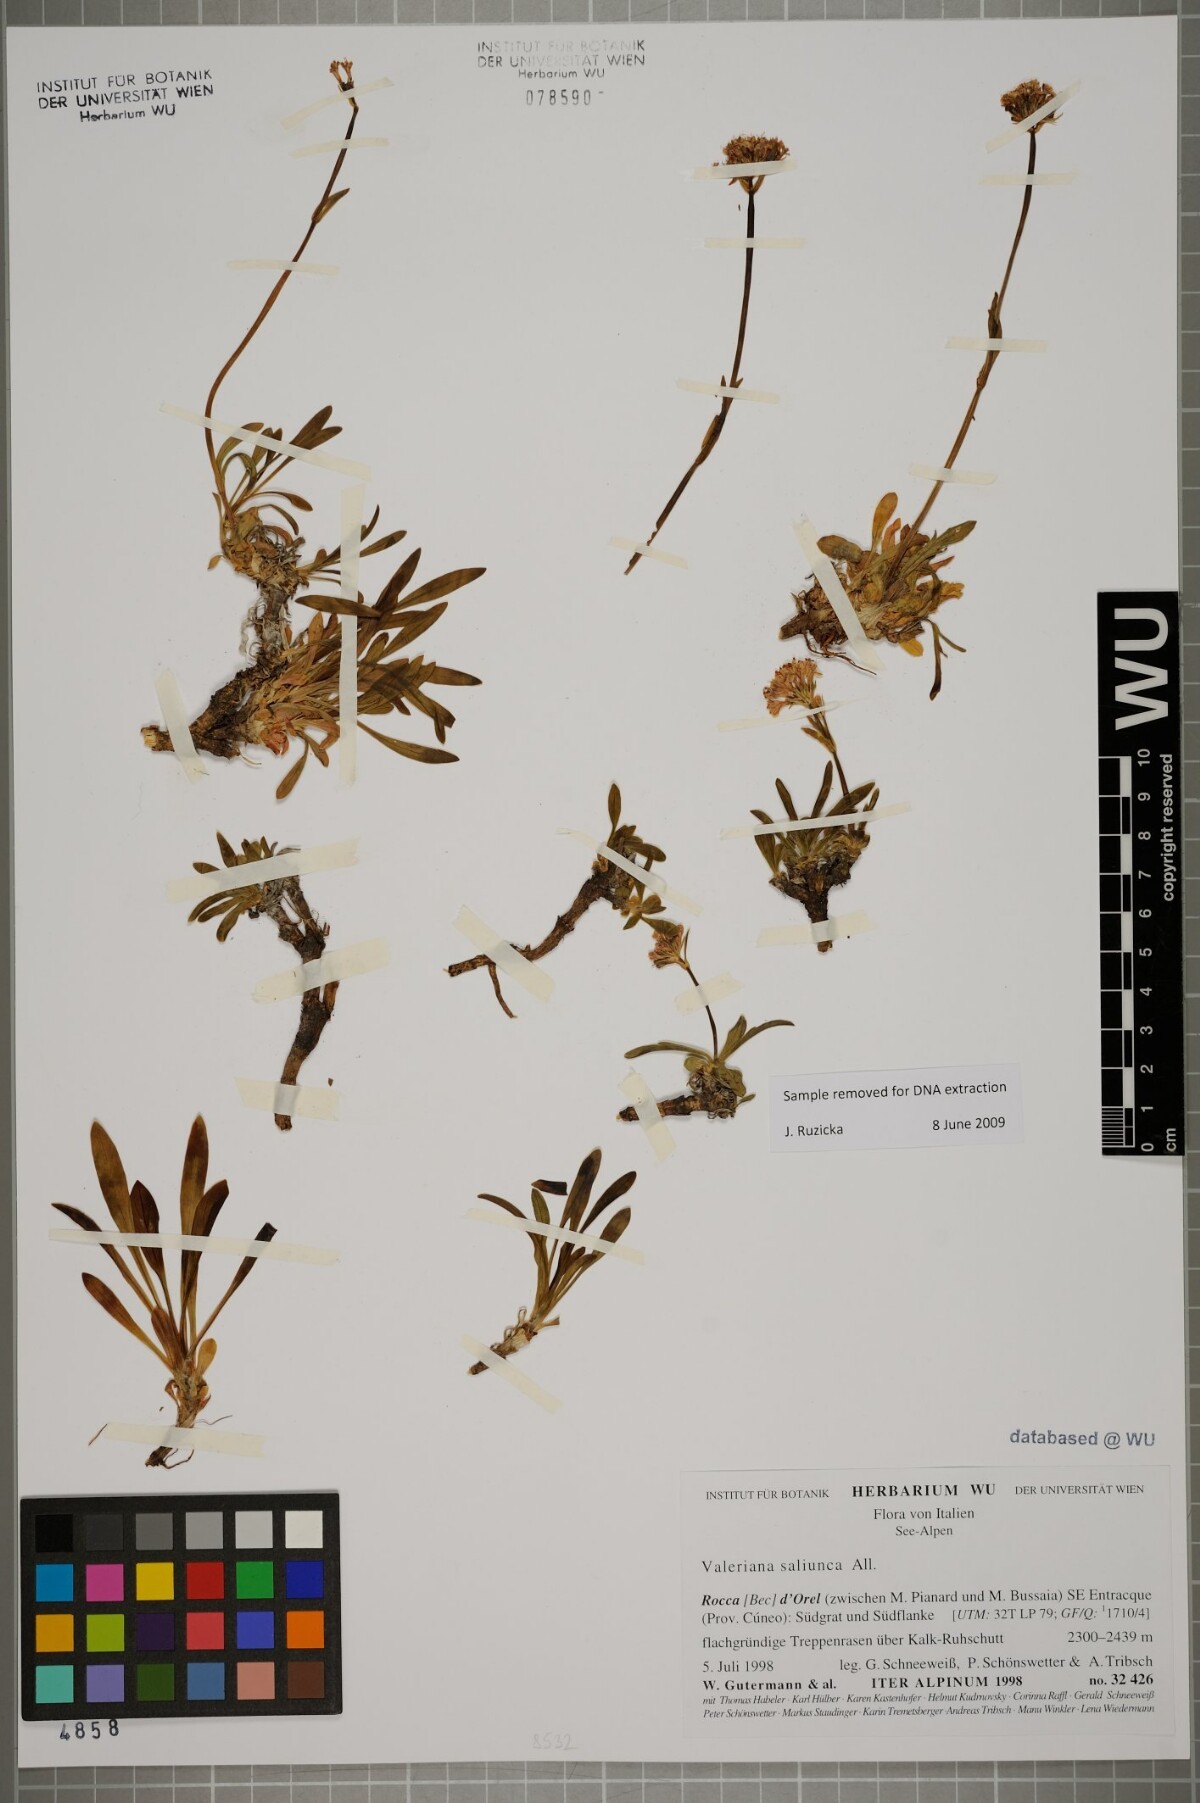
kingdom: Plantae
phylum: Tracheophyta
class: Magnoliopsida
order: Dipsacales
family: Caprifoliaceae
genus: Valeriana
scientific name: Valeriana saliunca
